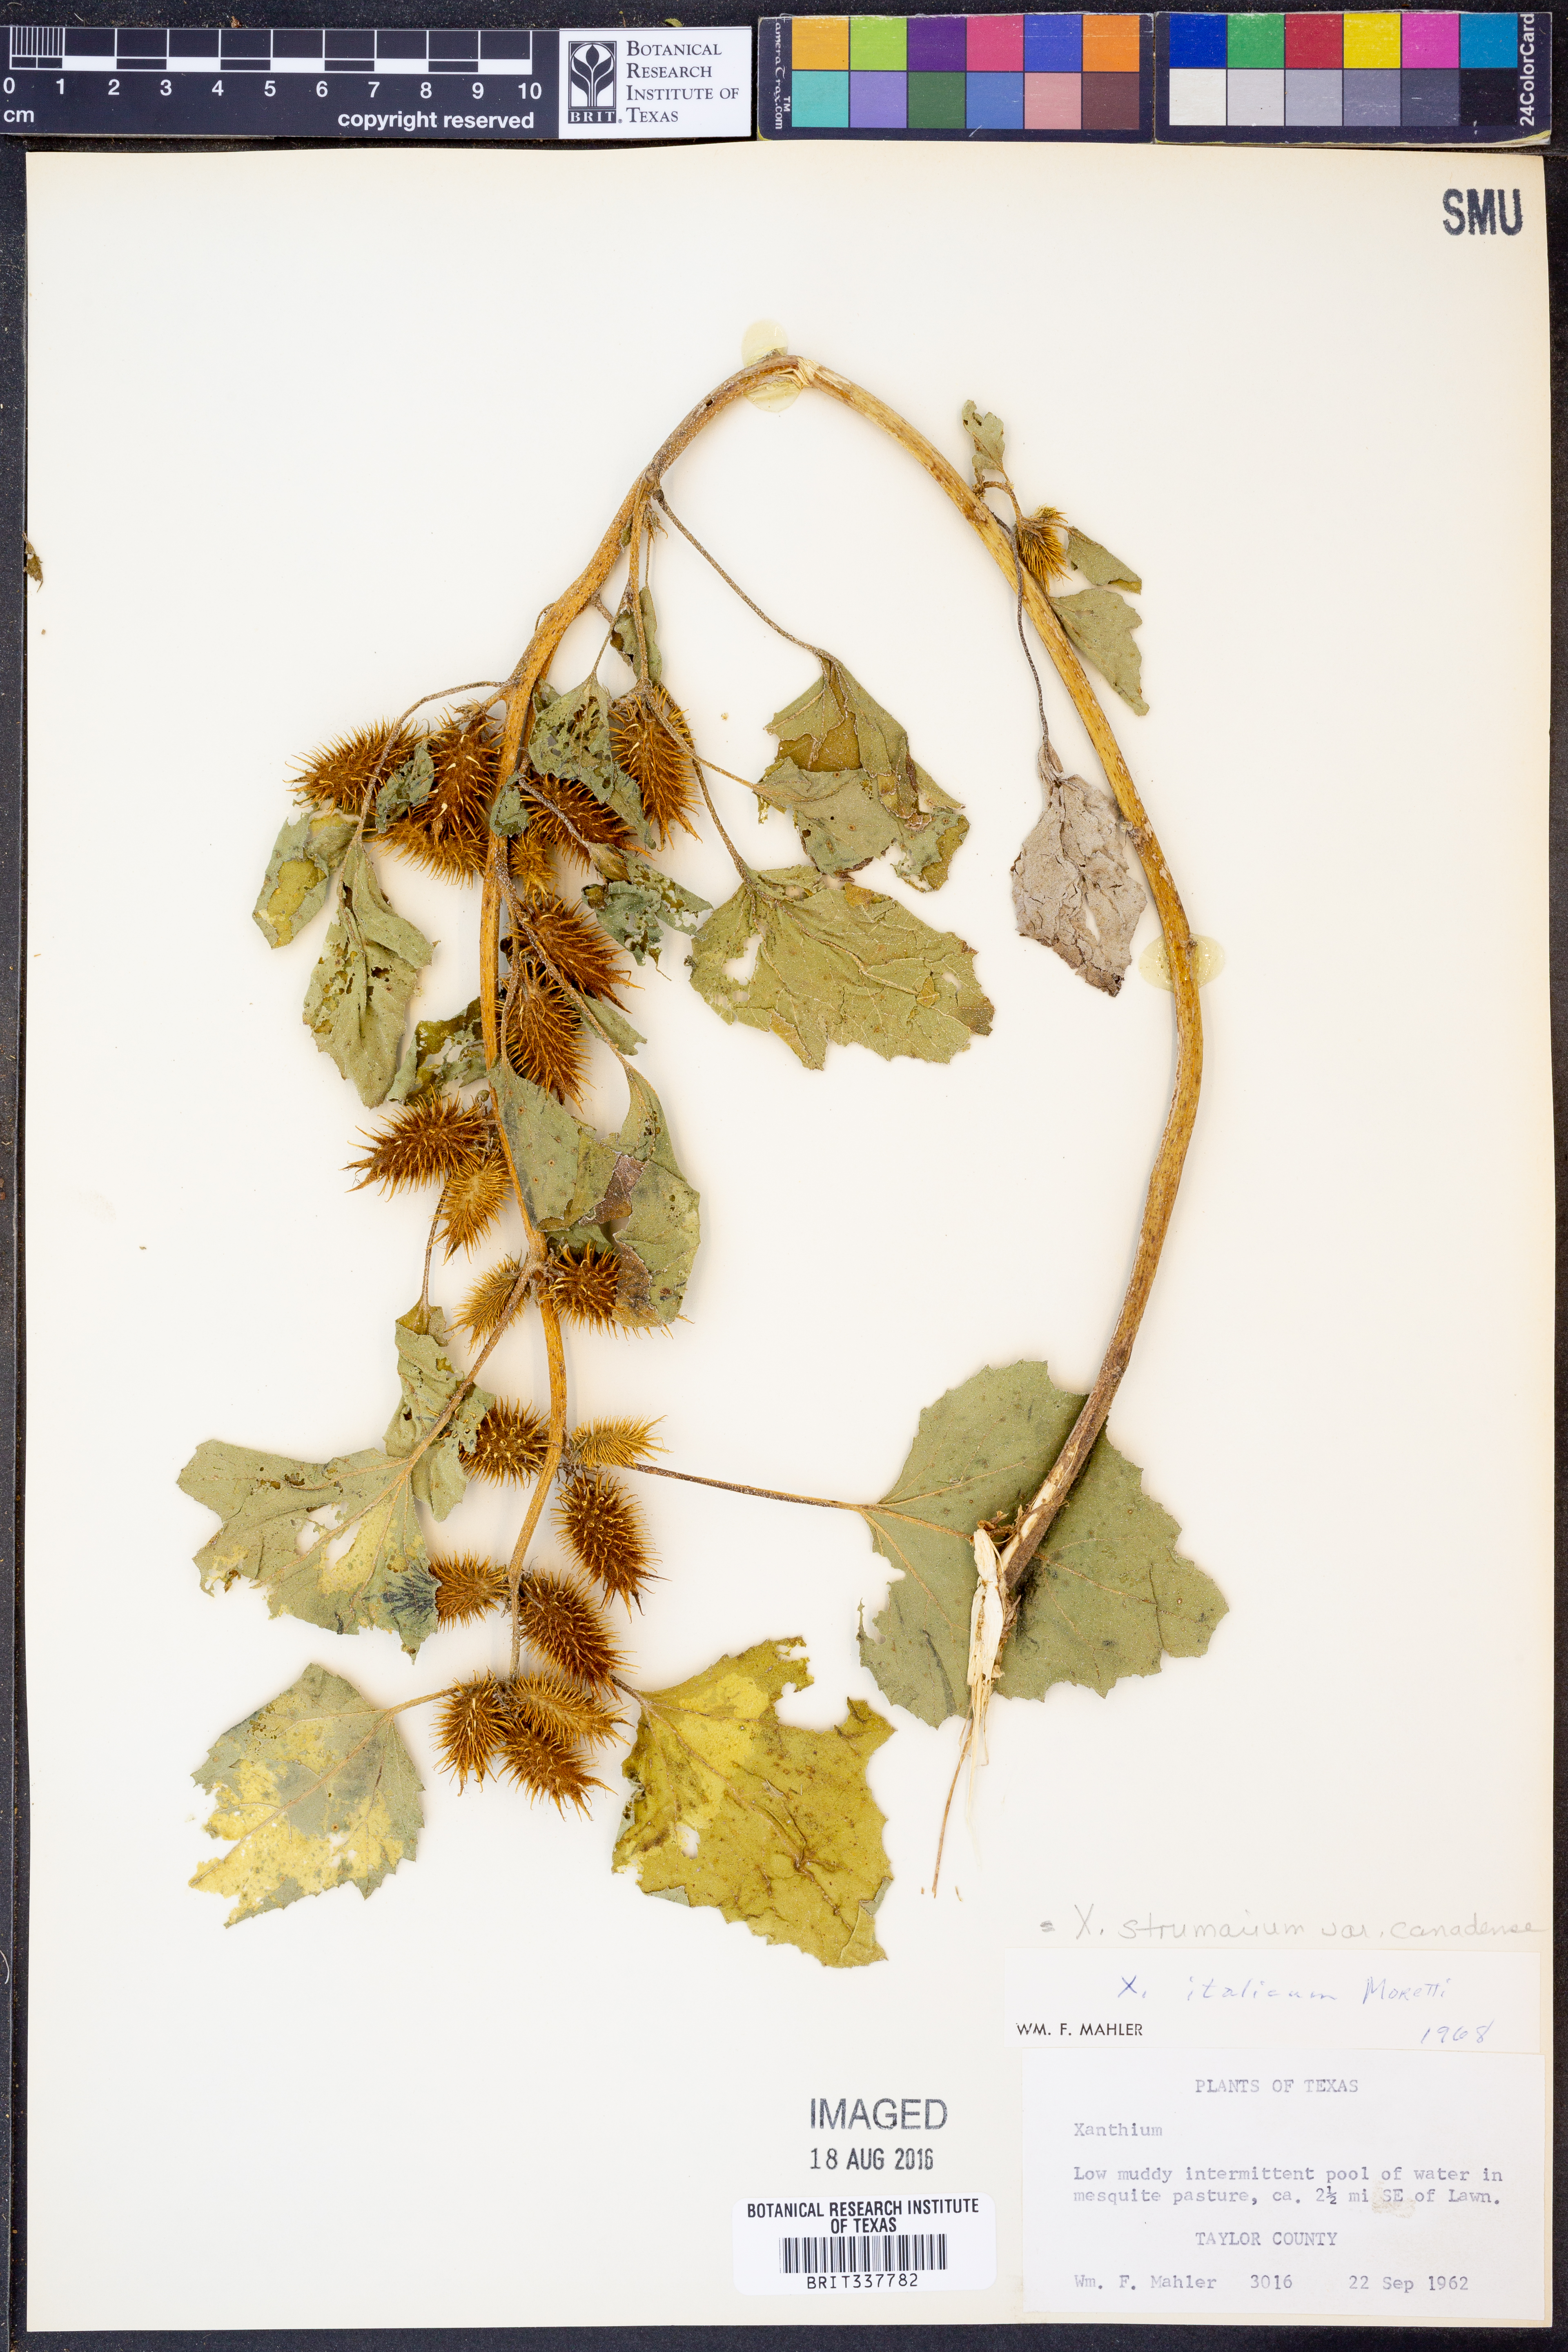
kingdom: Plantae
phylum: Tracheophyta
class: Magnoliopsida
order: Asterales
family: Asteraceae
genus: Xanthium
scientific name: Xanthium orientale
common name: Californian burr
